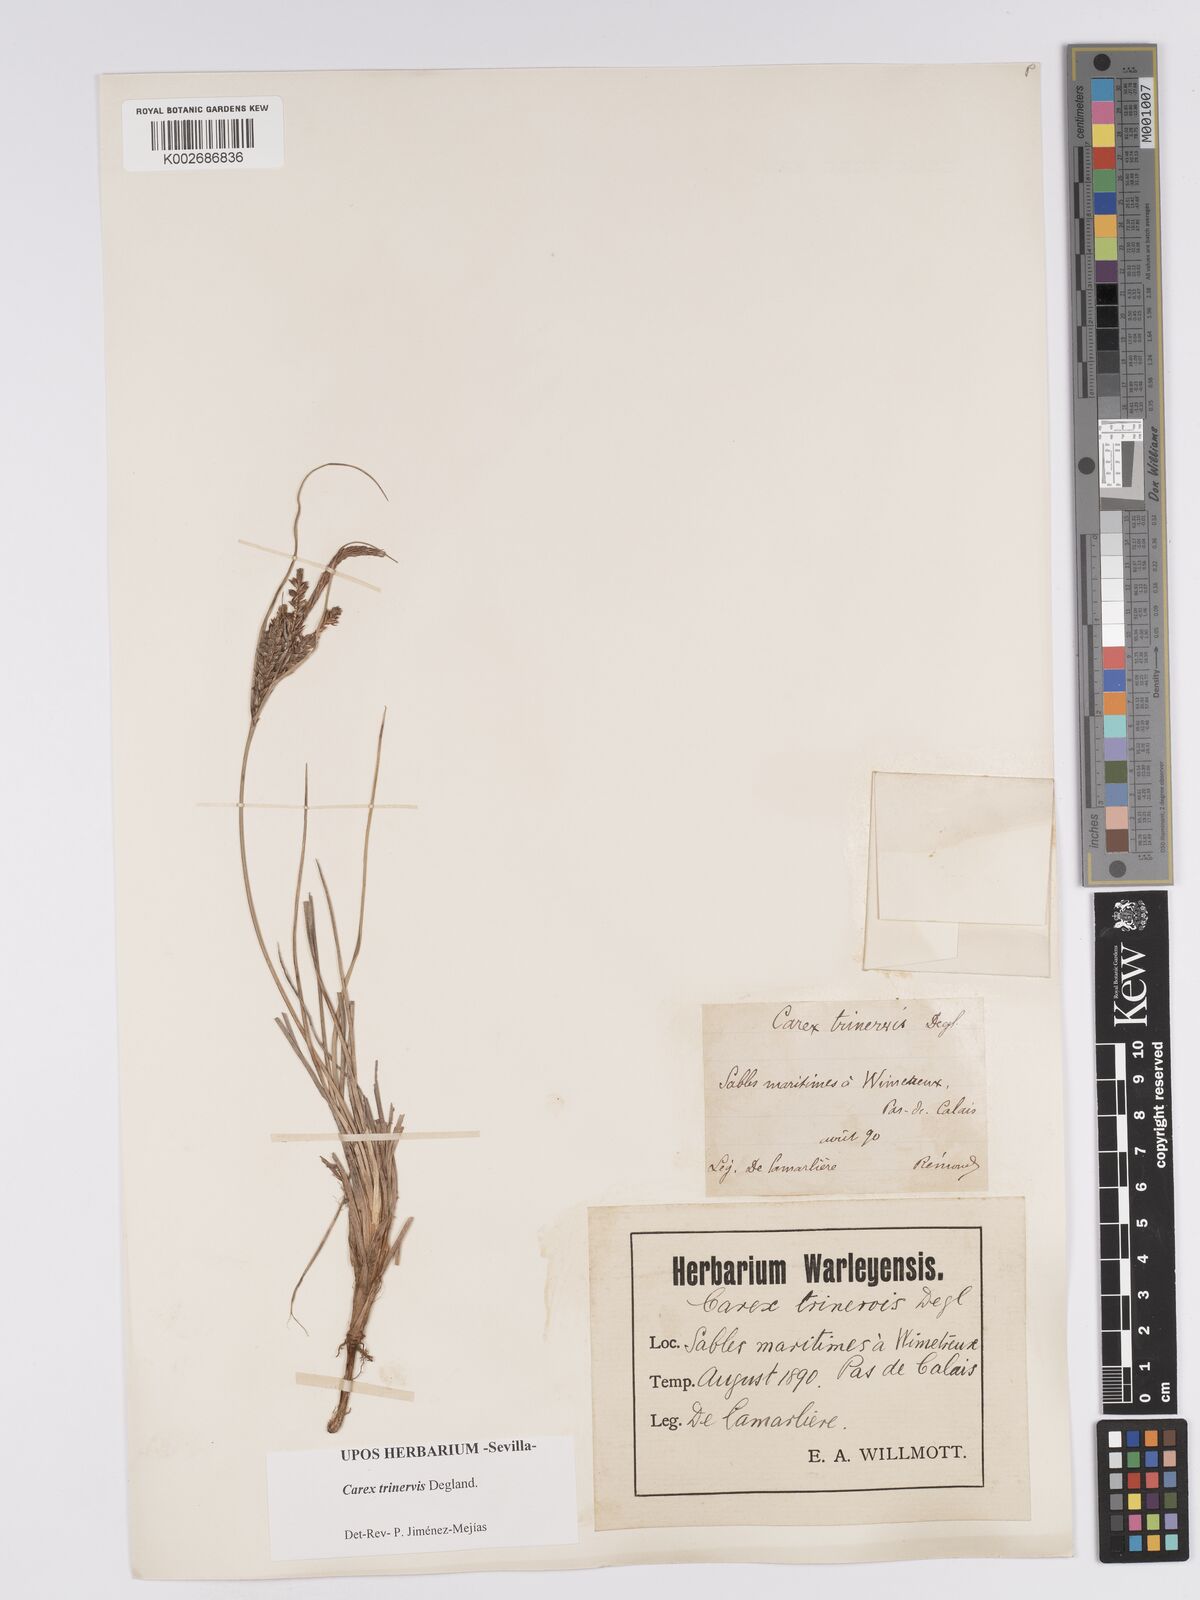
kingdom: Plantae
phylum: Tracheophyta
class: Liliopsida
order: Poales
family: Cyperaceae
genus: Carex
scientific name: Carex trinervis
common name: Three-nerved sedge
